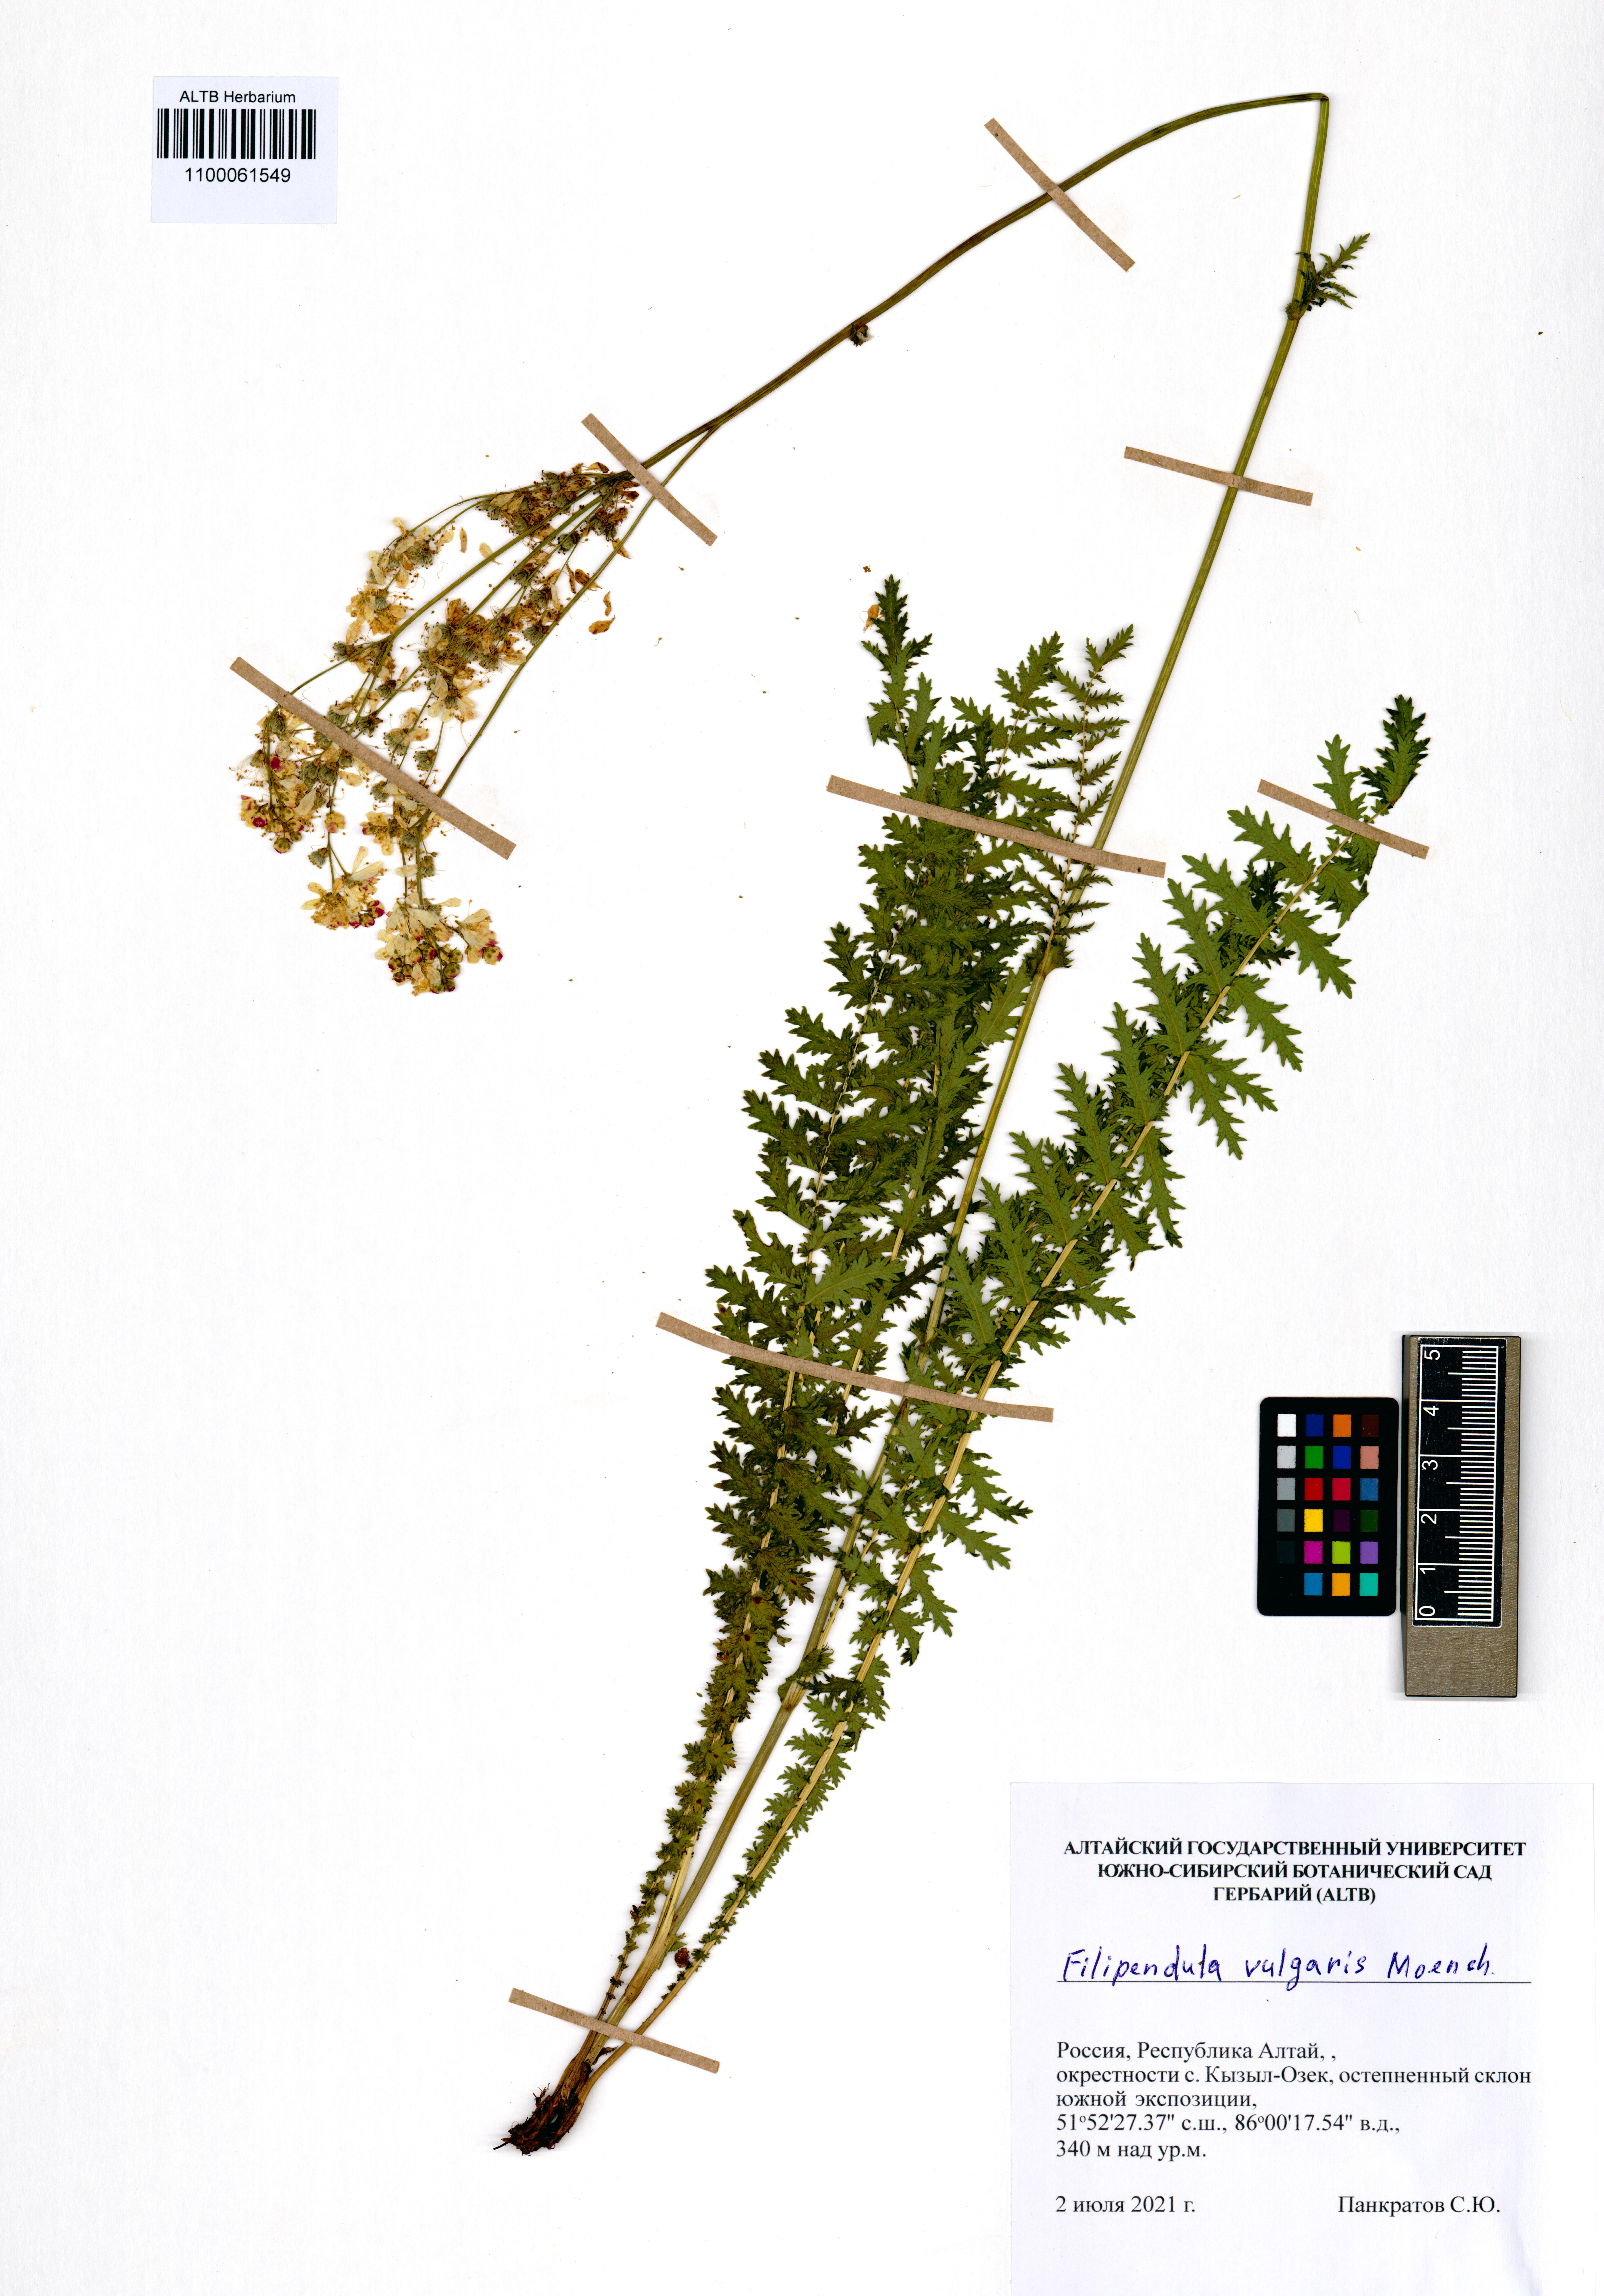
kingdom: Plantae
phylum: Tracheophyta
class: Magnoliopsida
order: Rosales
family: Rosaceae
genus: Filipendula
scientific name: Filipendula vulgaris
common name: Dropwort
